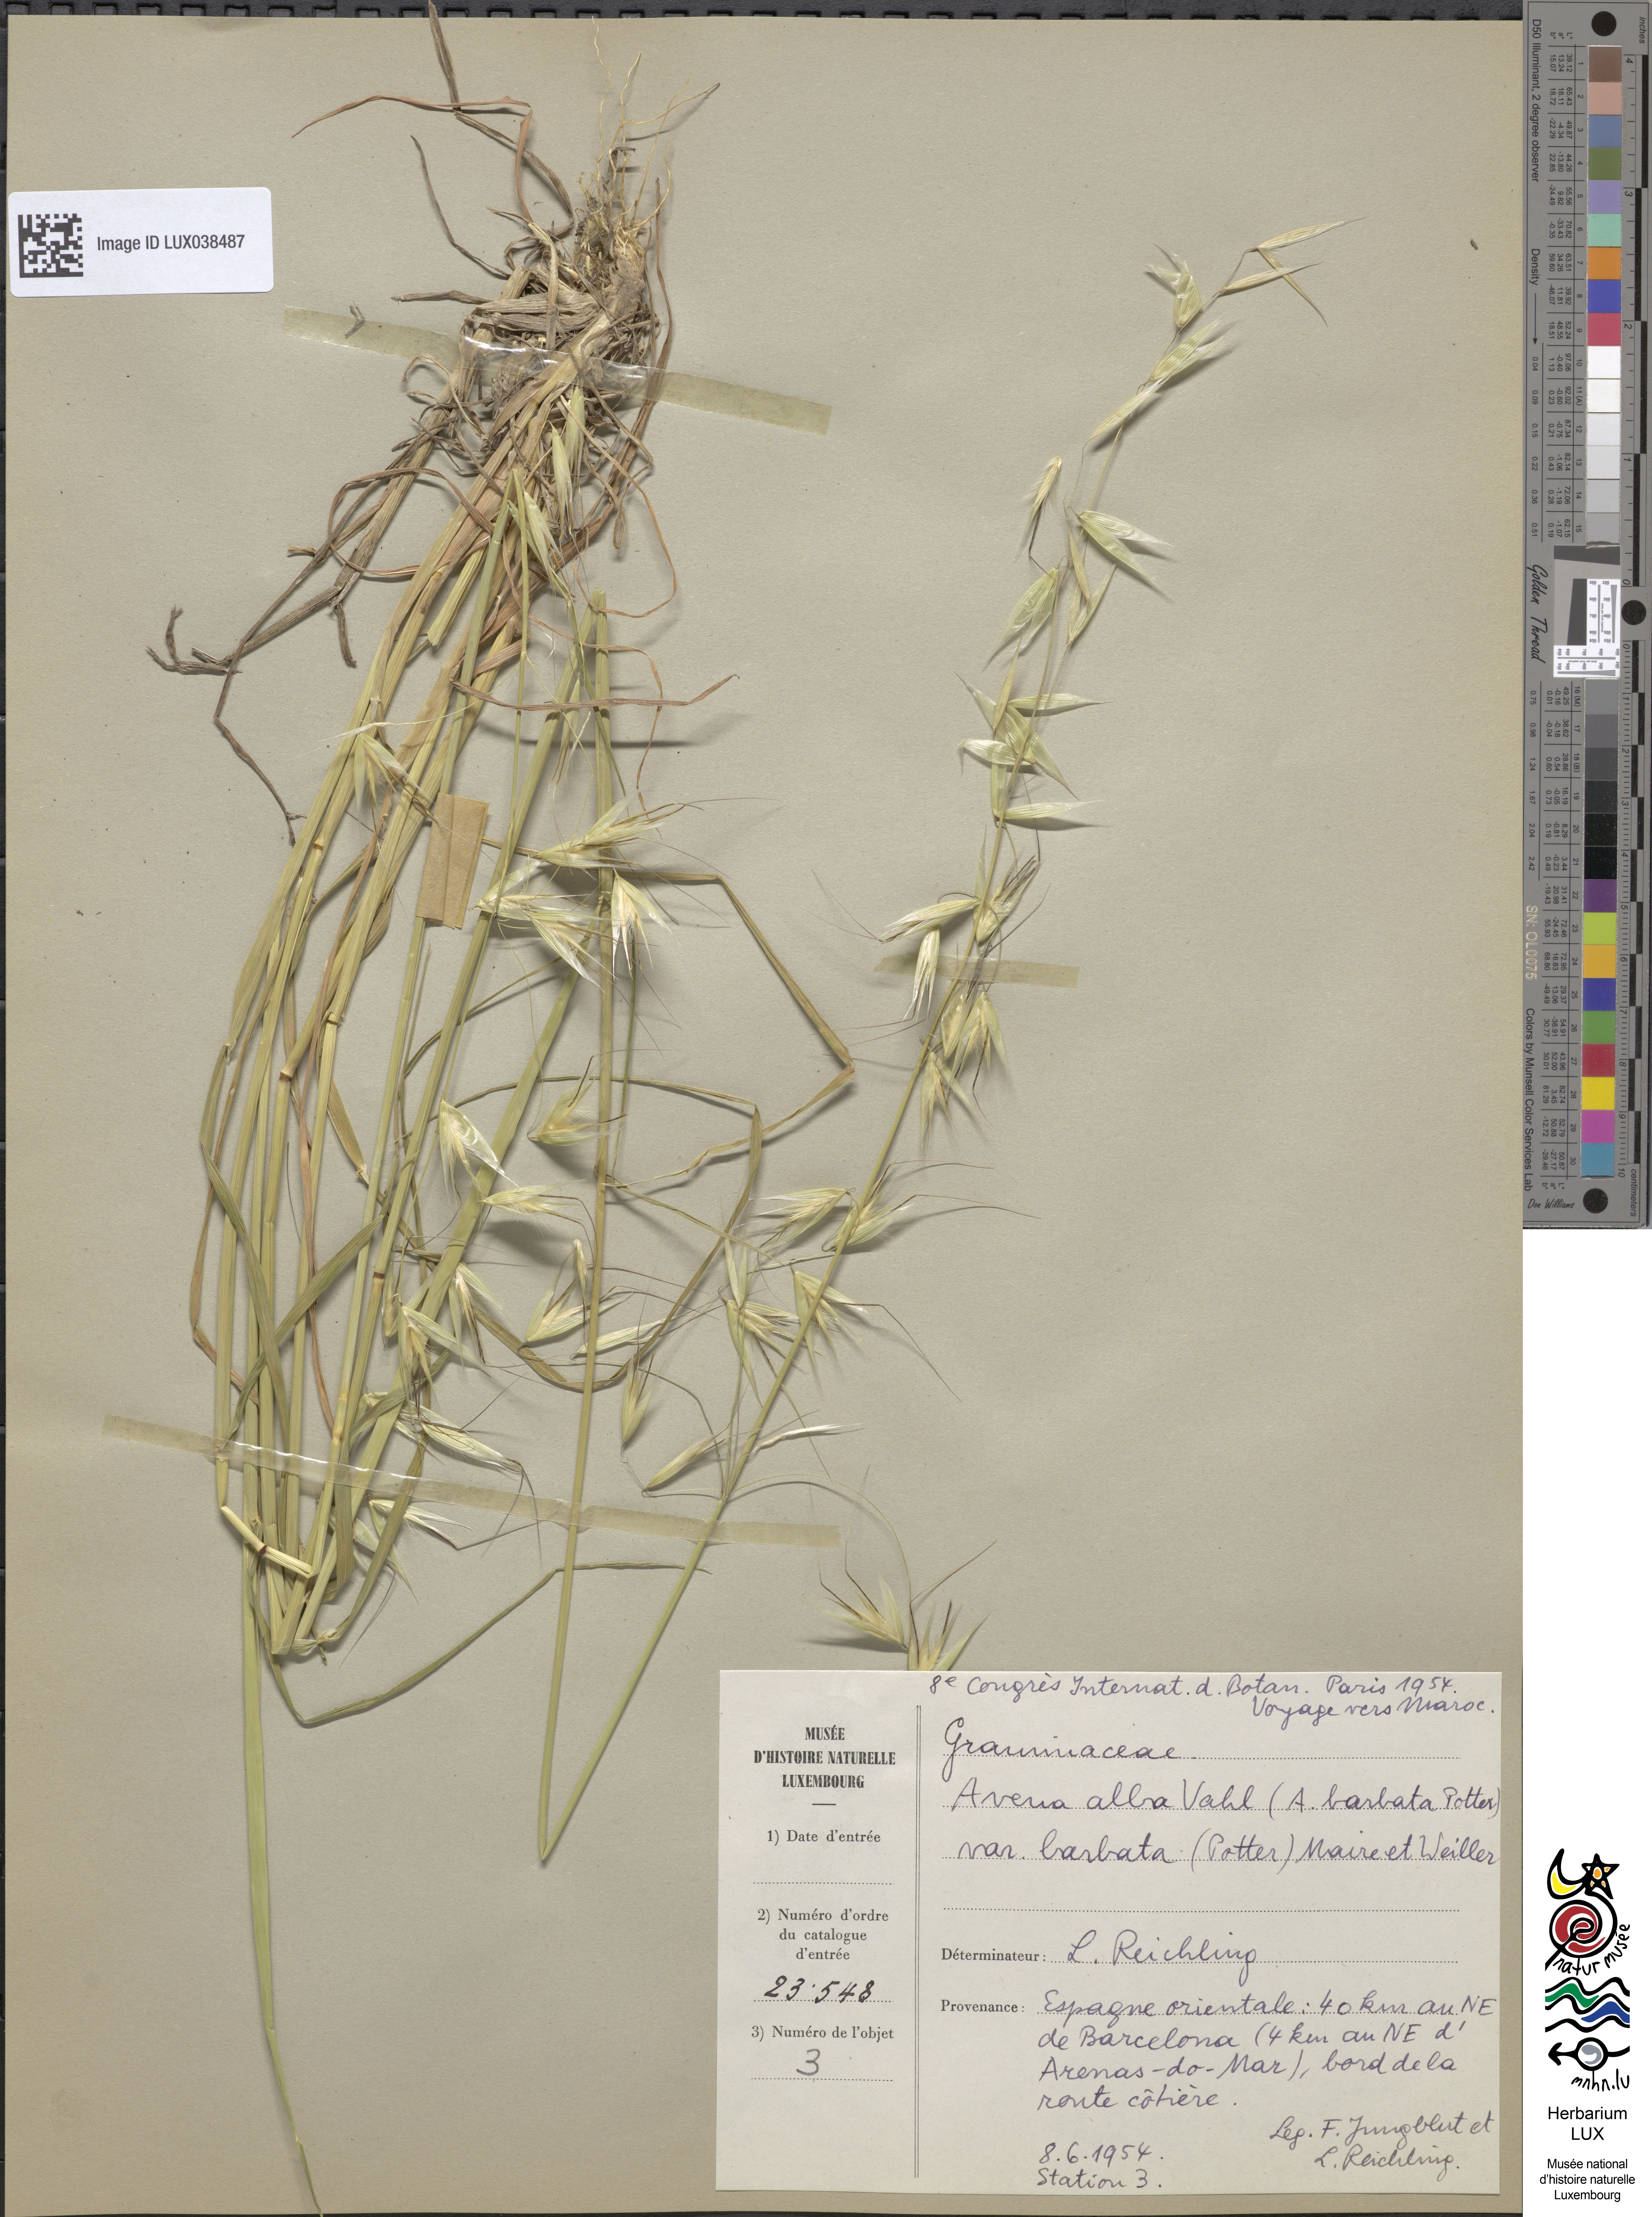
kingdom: Plantae
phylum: Tracheophyta
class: Liliopsida
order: Poales
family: Poaceae
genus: Avena
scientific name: Avena barbata
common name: Slender oat
